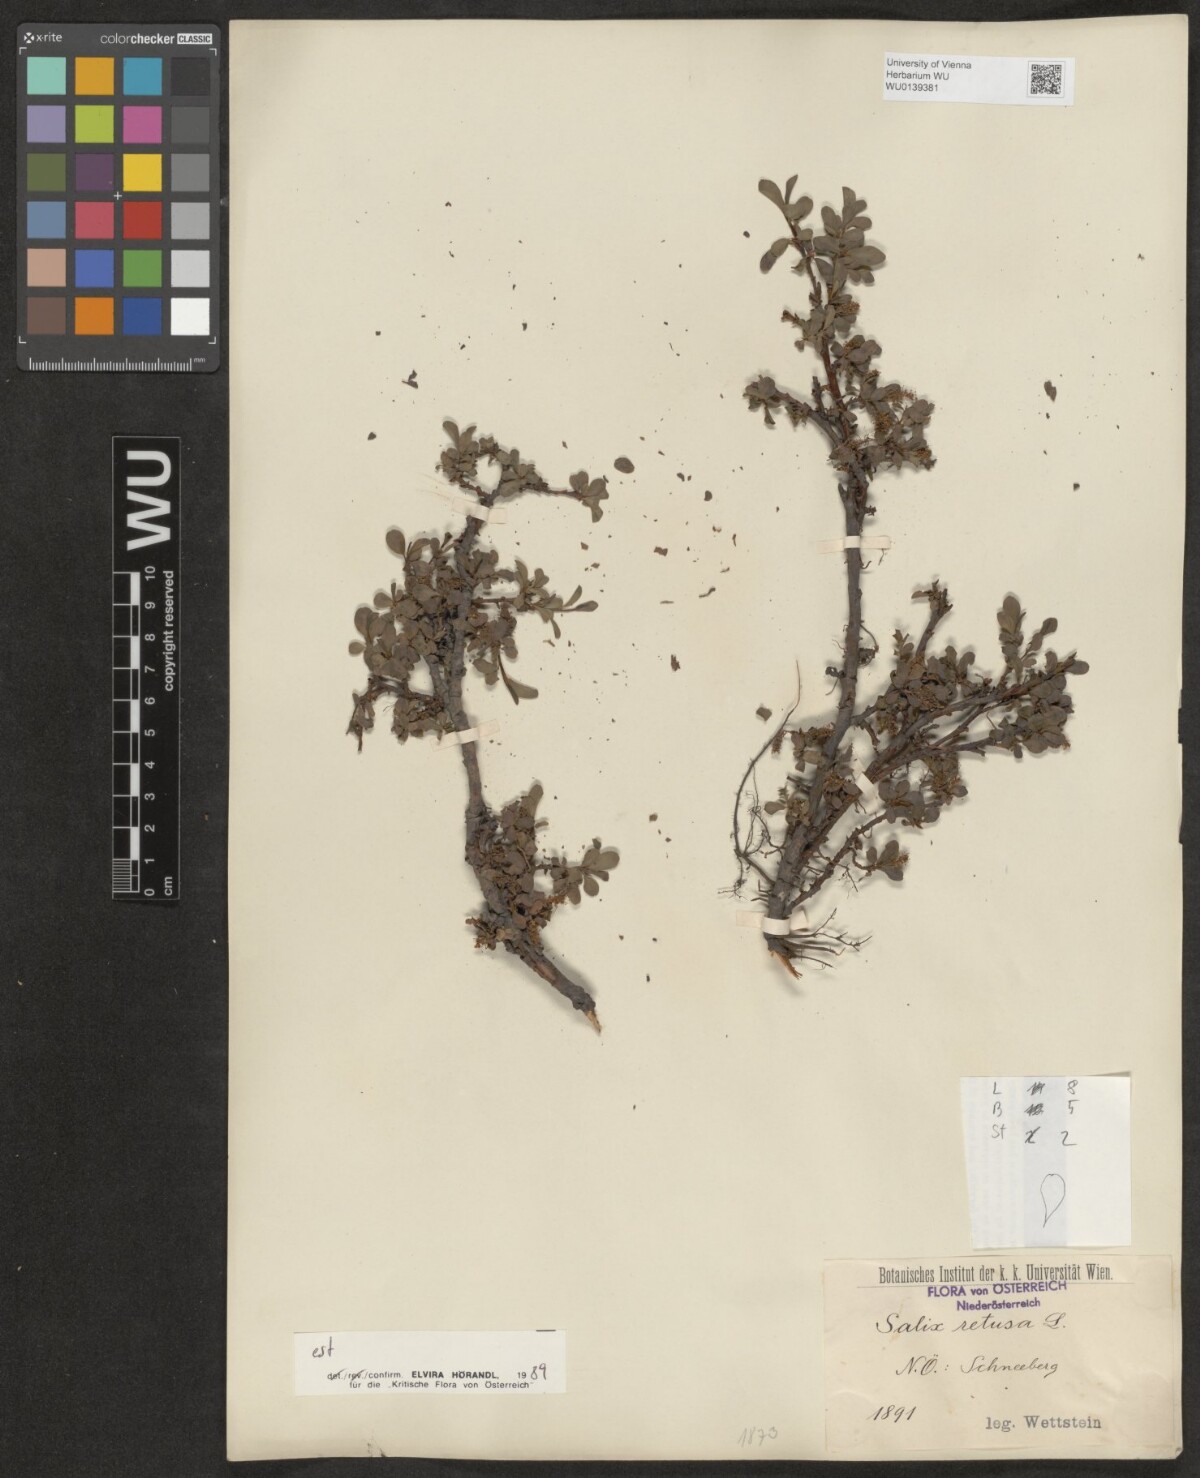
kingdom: Plantae
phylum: Tracheophyta
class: Magnoliopsida
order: Malpighiales
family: Salicaceae
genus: Salix
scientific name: Salix retusa
